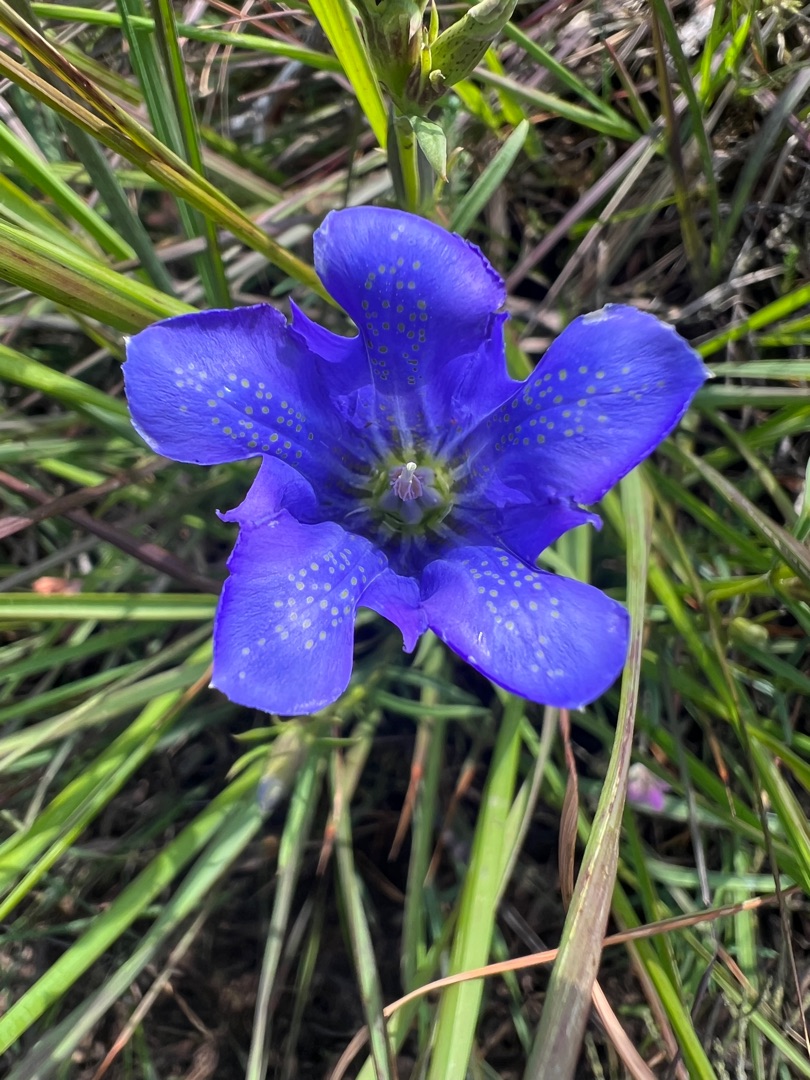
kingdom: Plantae
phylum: Tracheophyta
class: Magnoliopsida
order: Gentianales
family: Gentianaceae
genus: Gentiana
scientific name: Gentiana pneumonanthe
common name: Klokke-ensian
